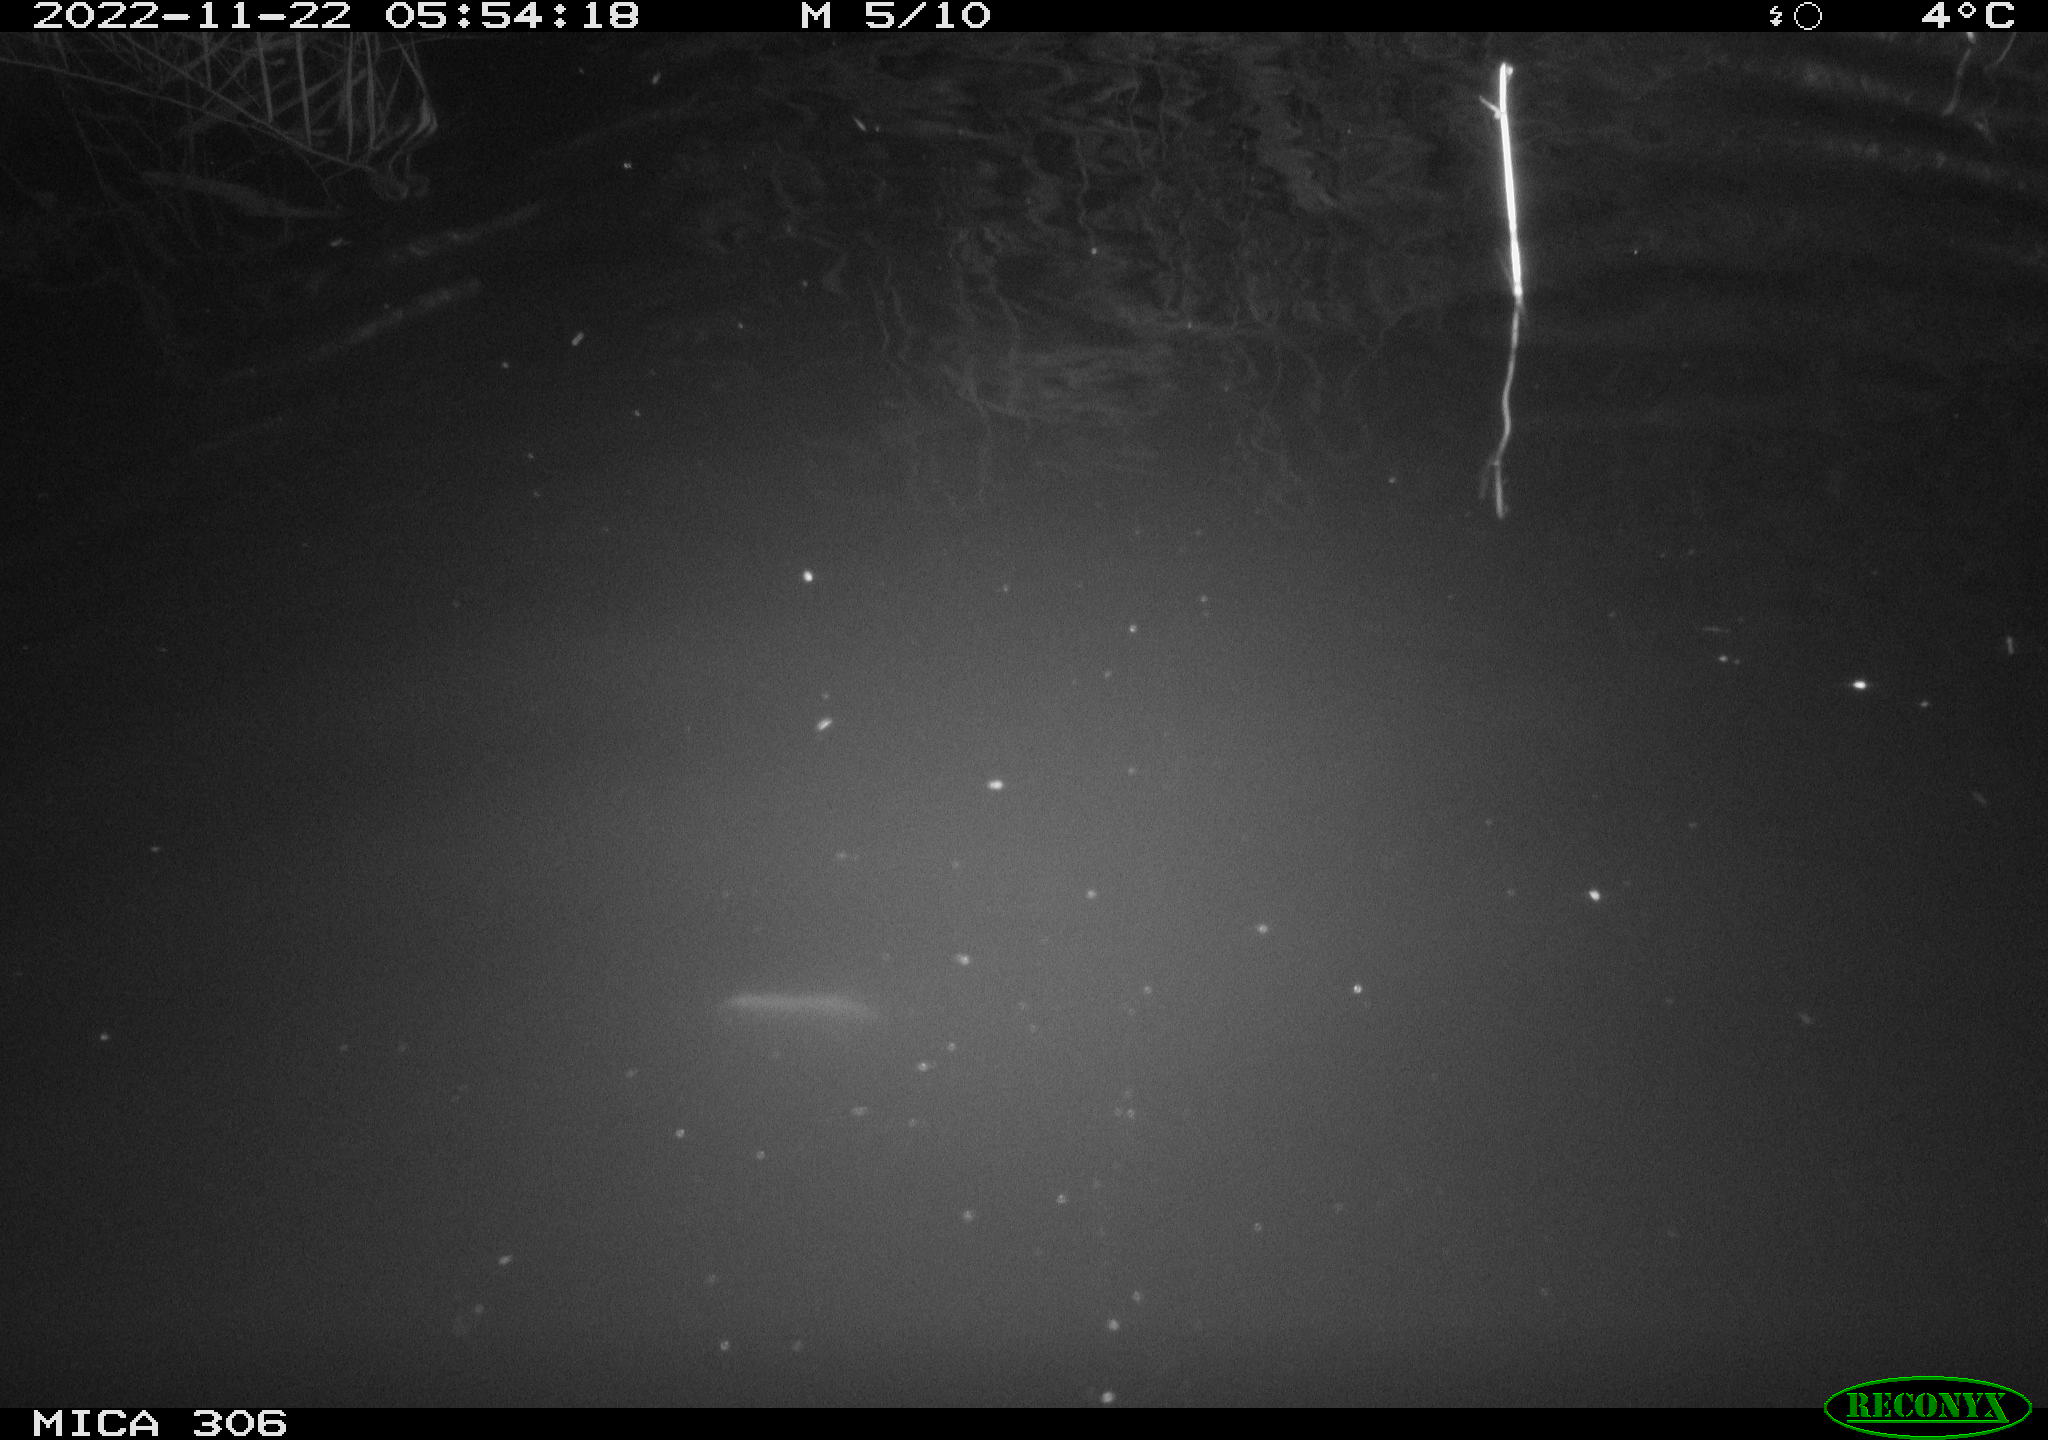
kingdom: Animalia
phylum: Chordata
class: Mammalia
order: Rodentia
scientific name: Rodentia
